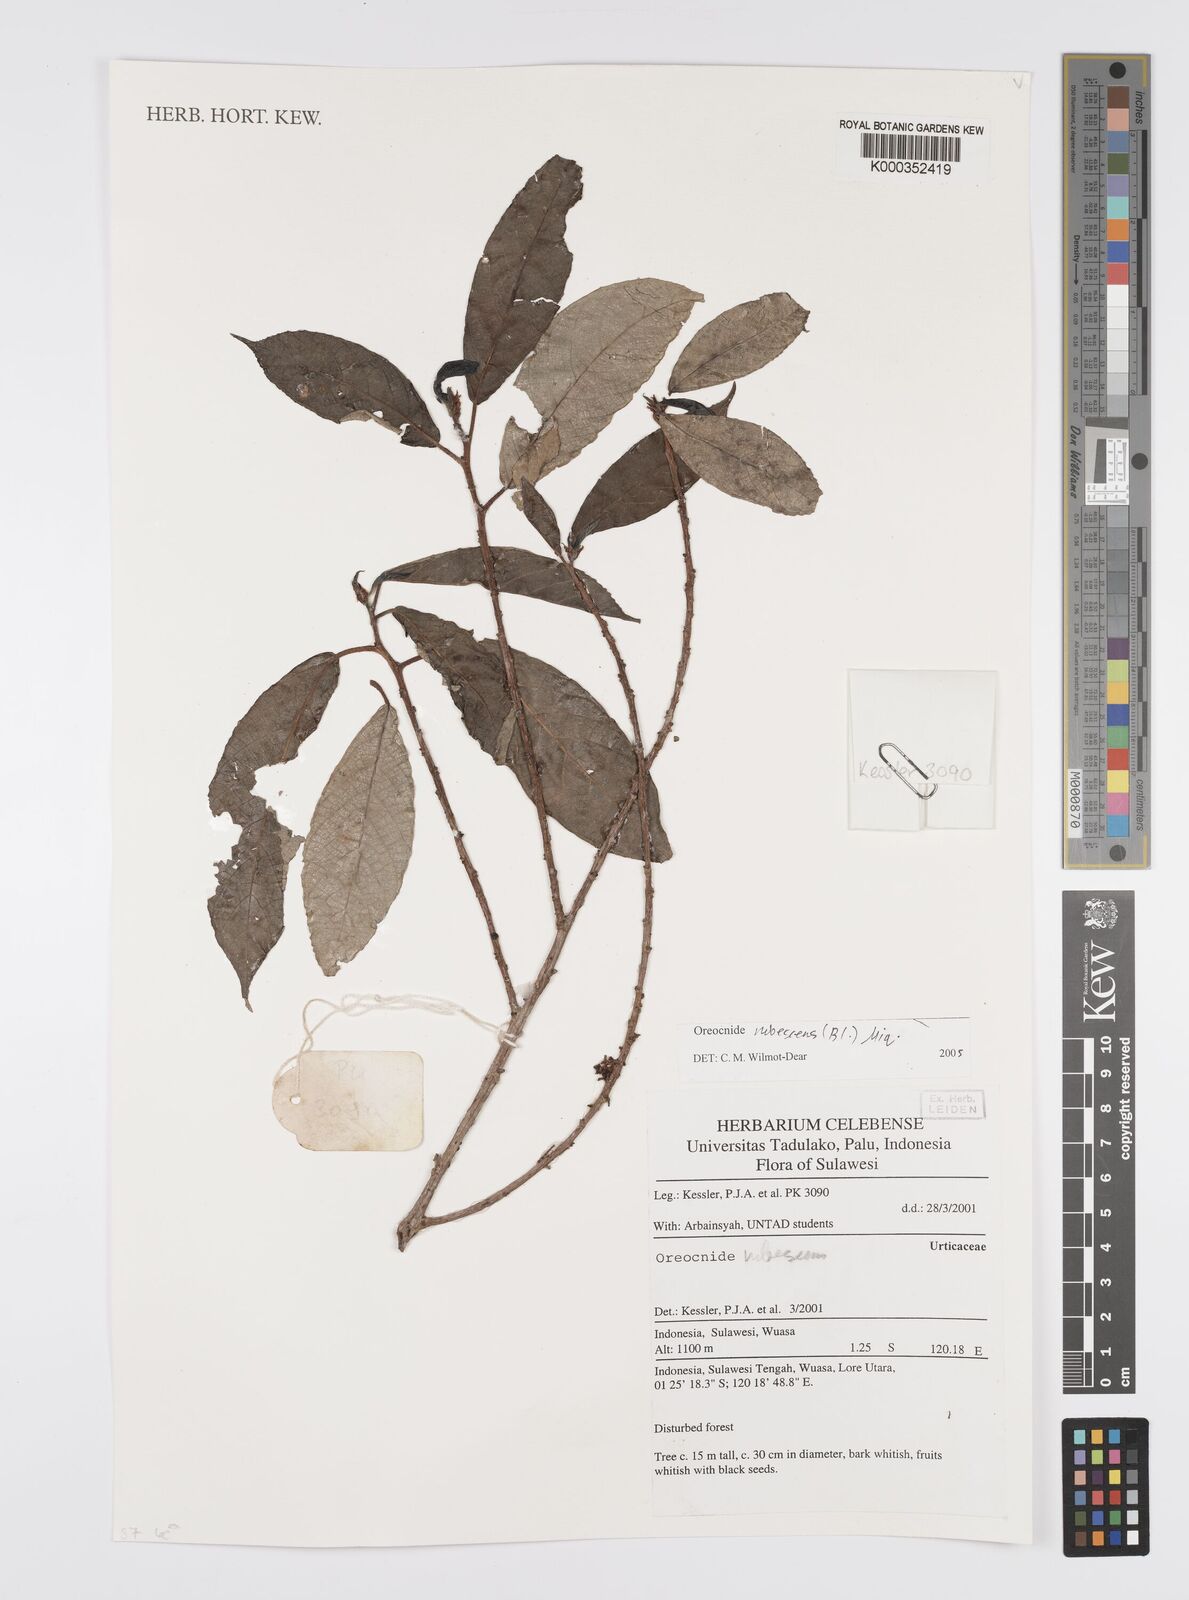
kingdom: Plantae
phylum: Tracheophyta
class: Magnoliopsida
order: Rosales
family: Urticaceae
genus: Oreocnide
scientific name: Oreocnide rubescens
